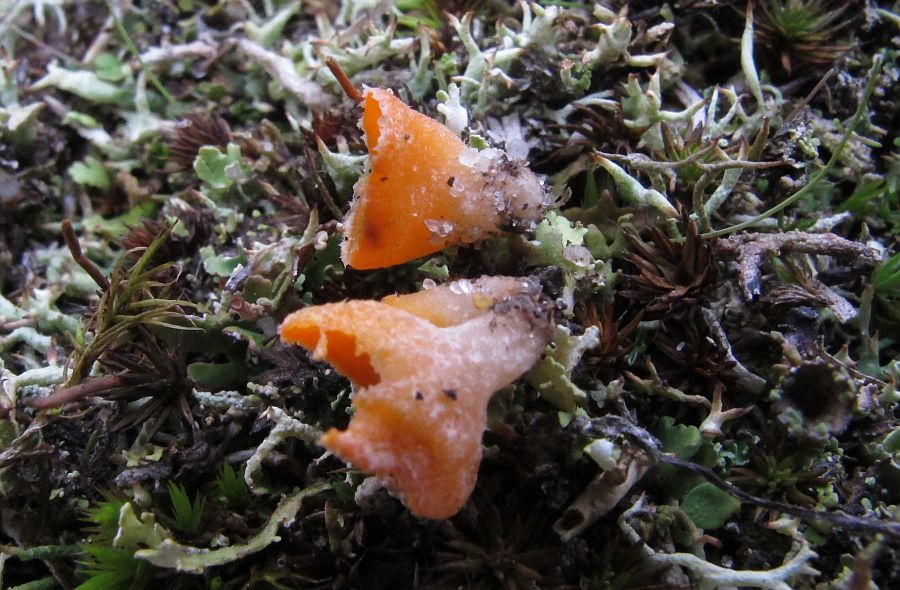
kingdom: Fungi
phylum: Ascomycota
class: Pezizomycetes
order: Pezizales
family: Pyronemataceae
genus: Neottiella
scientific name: Neottiella rutilans
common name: jomfruhår-mosbæger
